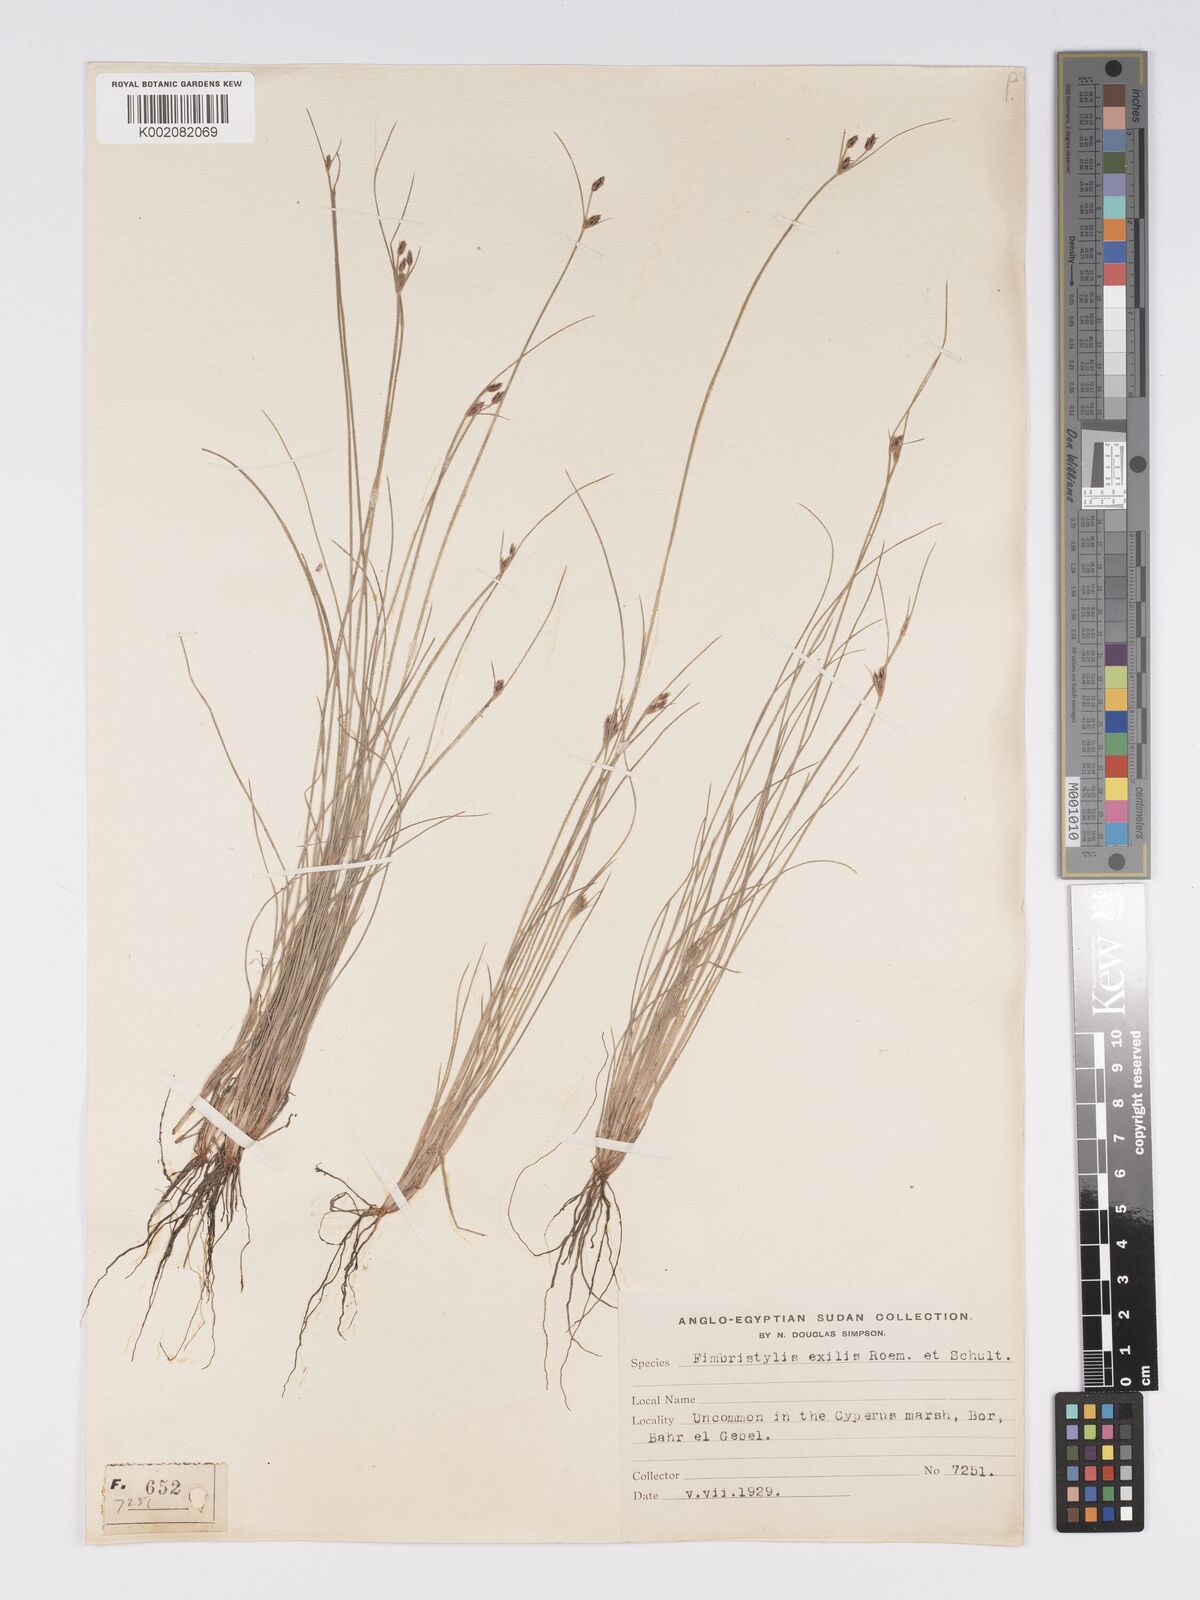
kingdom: Plantae
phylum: Tracheophyta
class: Liliopsida
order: Poales
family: Cyperaceae
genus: Bulbostylis
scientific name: Bulbostylis hispidula
